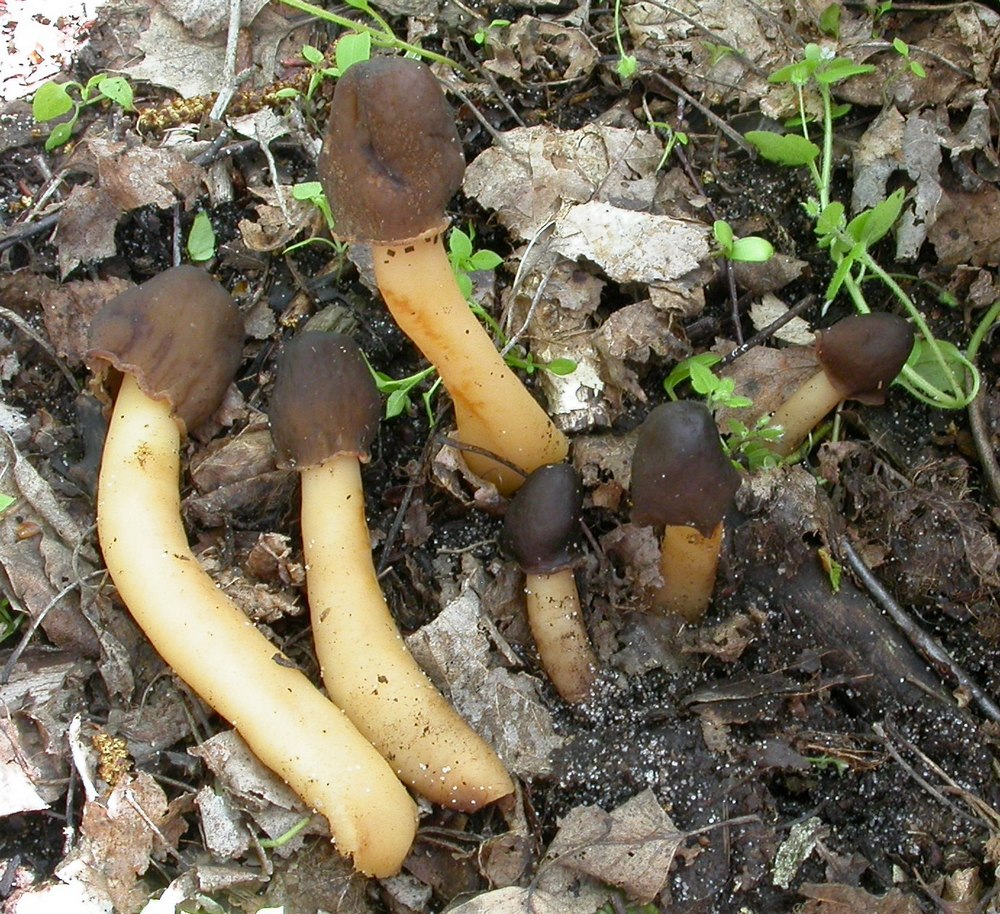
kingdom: Fungi
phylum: Ascomycota
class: Pezizomycetes
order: Pezizales
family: Morchellaceae
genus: Verpa
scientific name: Verpa conica
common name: glat klokkemorkel
